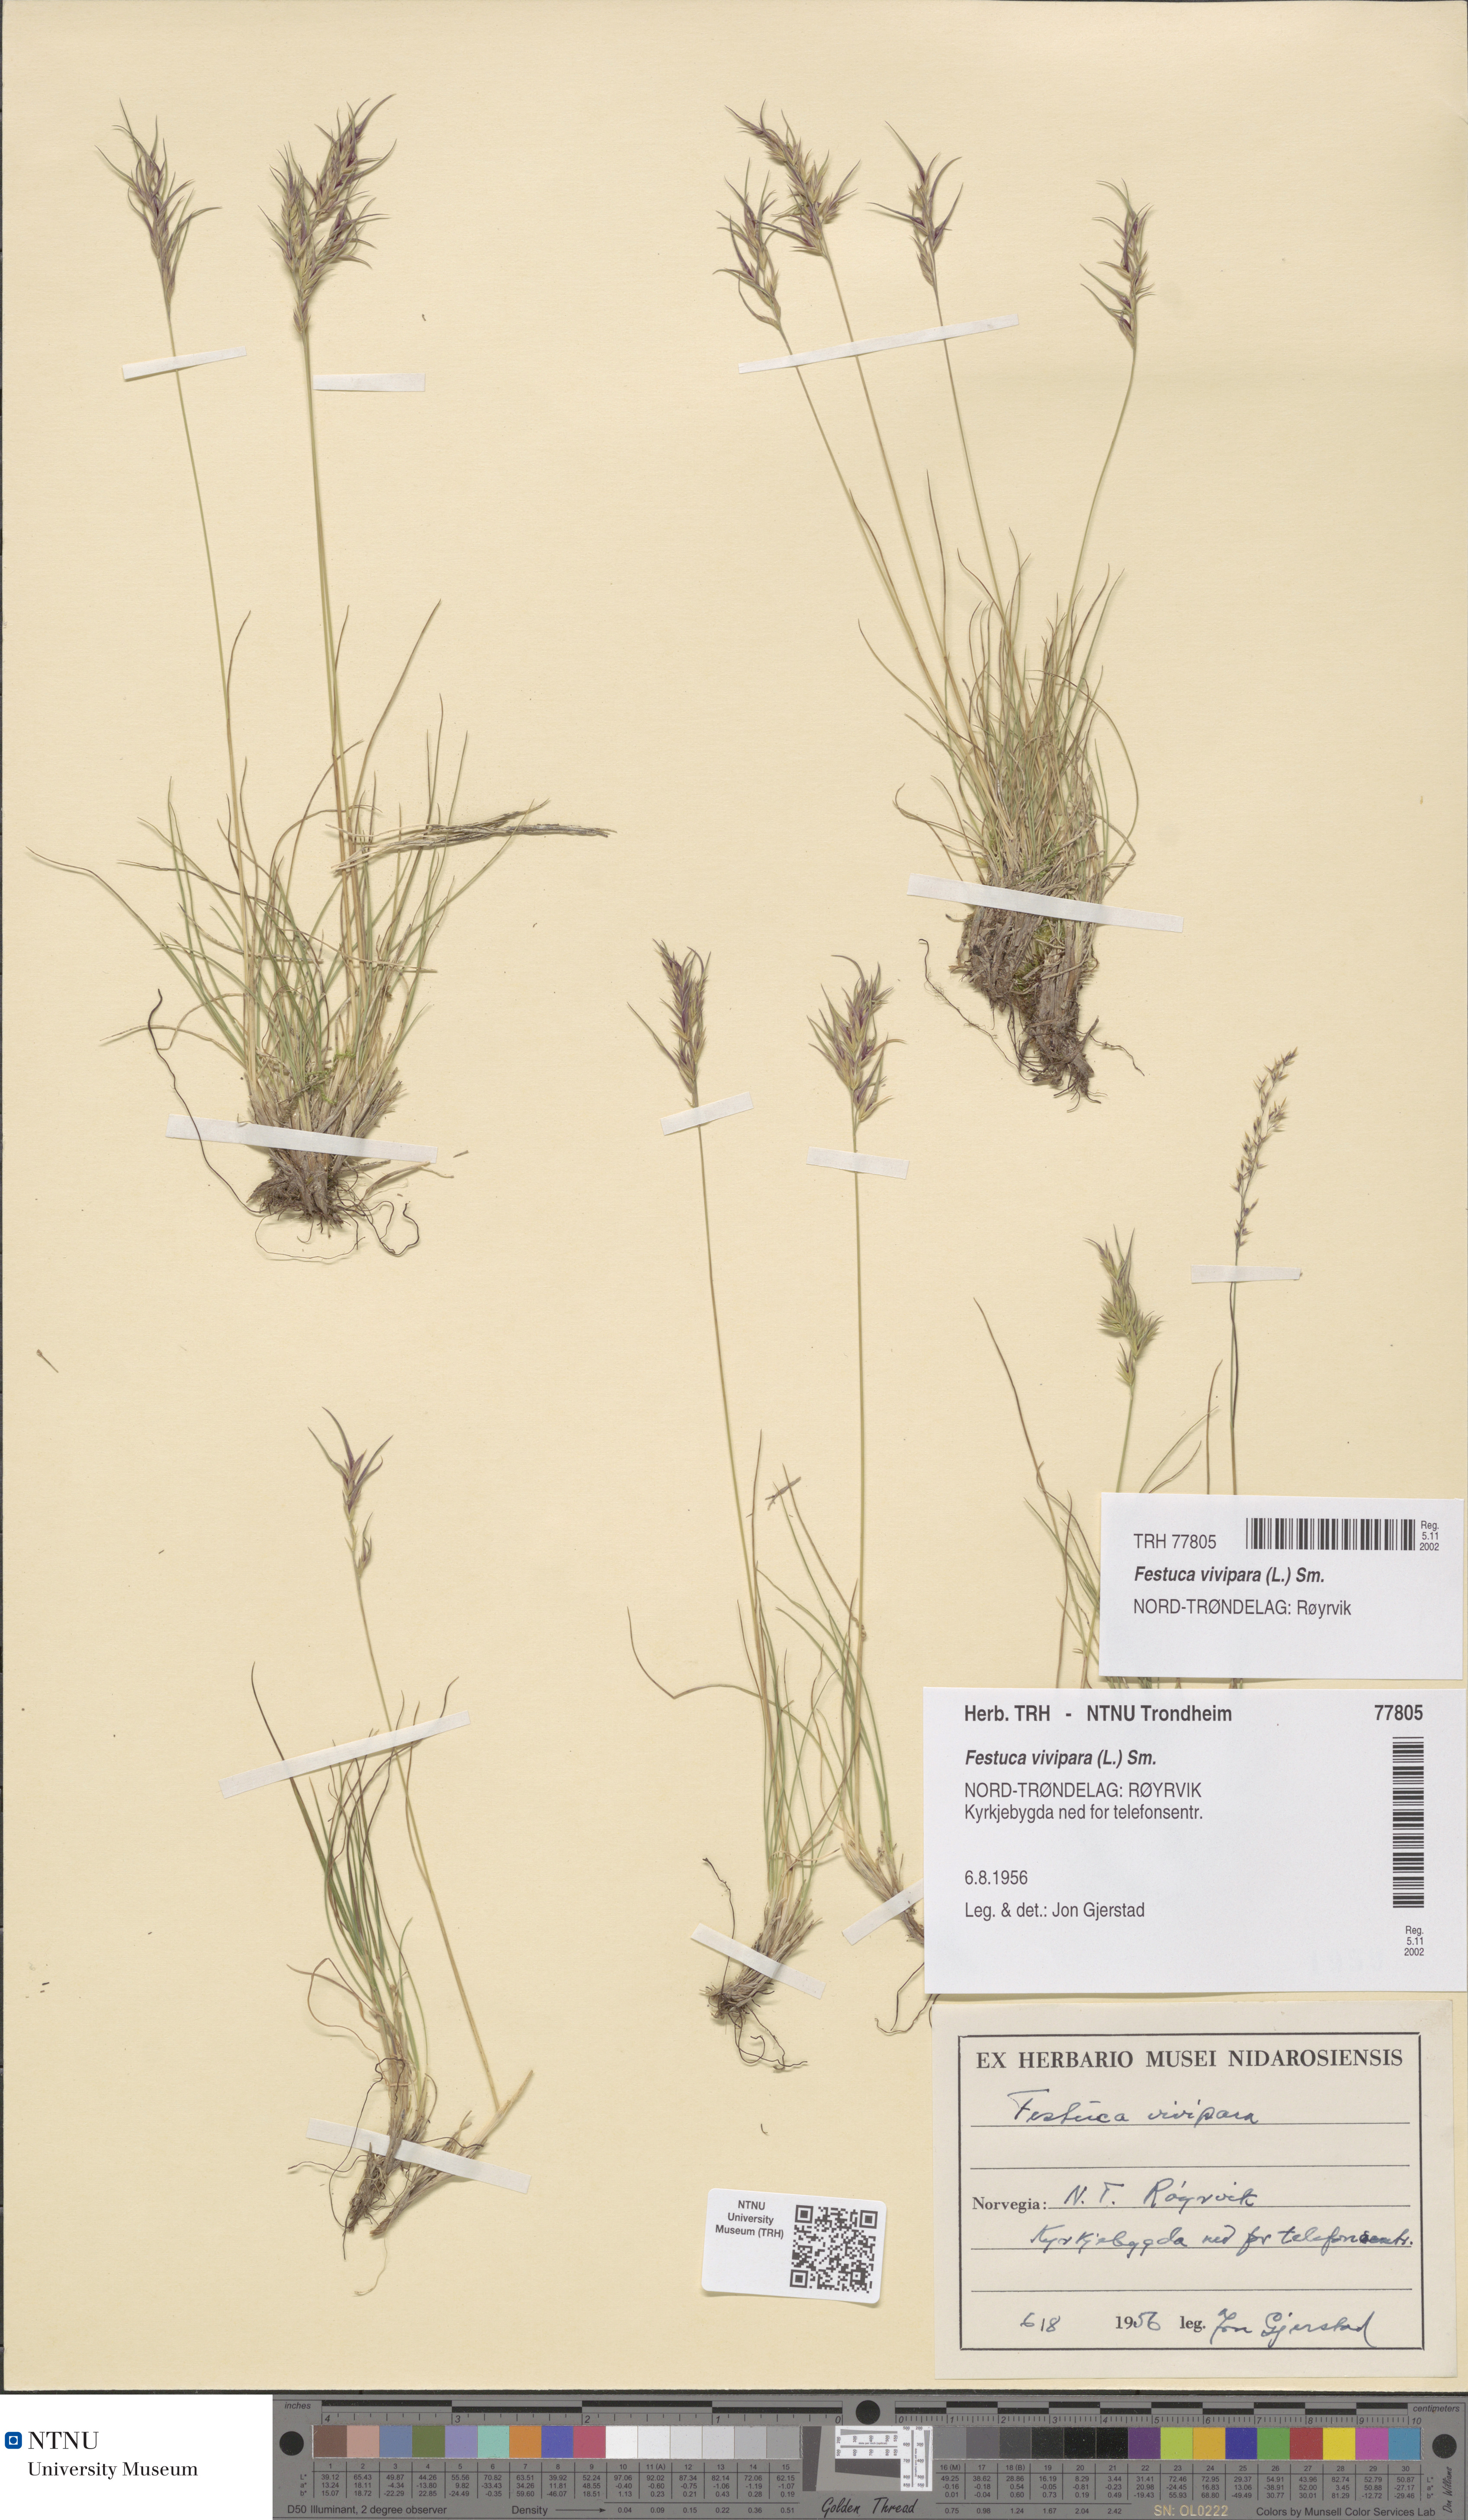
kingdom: Plantae
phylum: Tracheophyta
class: Liliopsida
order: Poales
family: Poaceae
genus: Festuca
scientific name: Festuca vivipara
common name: Viviparous sheep's-fescue
